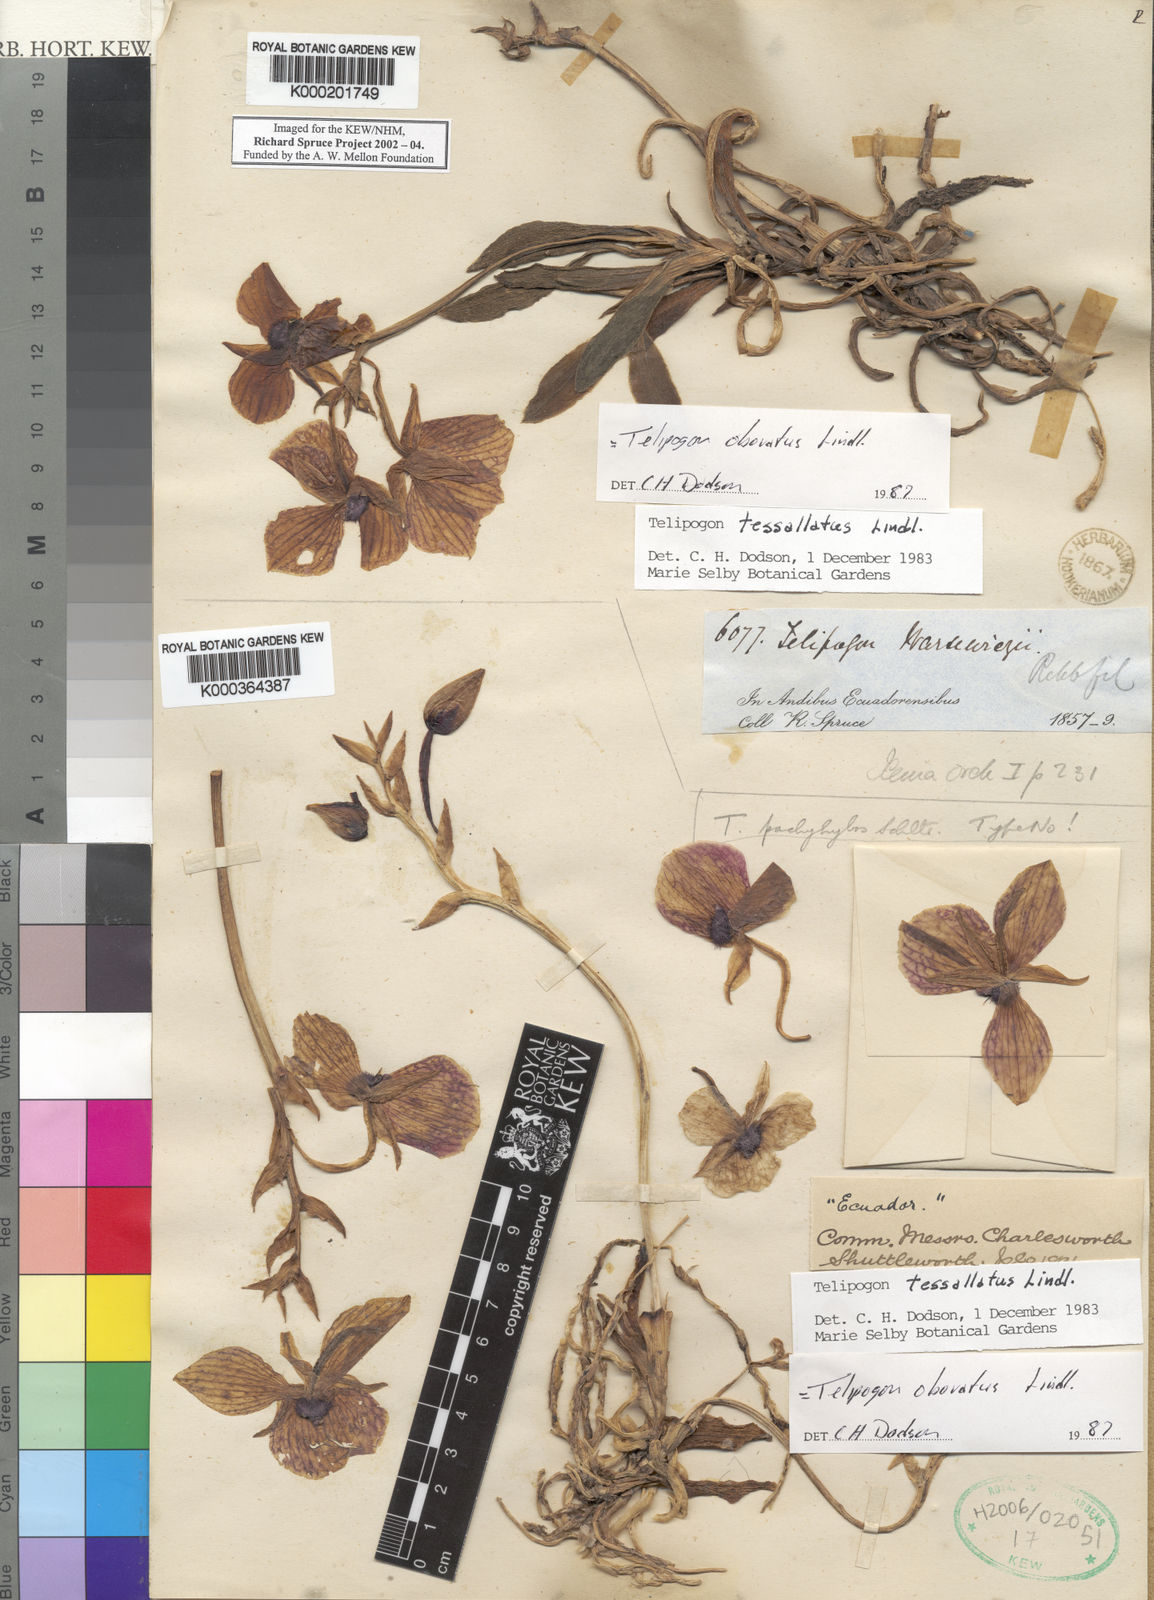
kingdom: Plantae
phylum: Tracheophyta
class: Liliopsida
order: Asparagales
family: Orchidaceae
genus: Telipogon
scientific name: Telipogon obovatus
